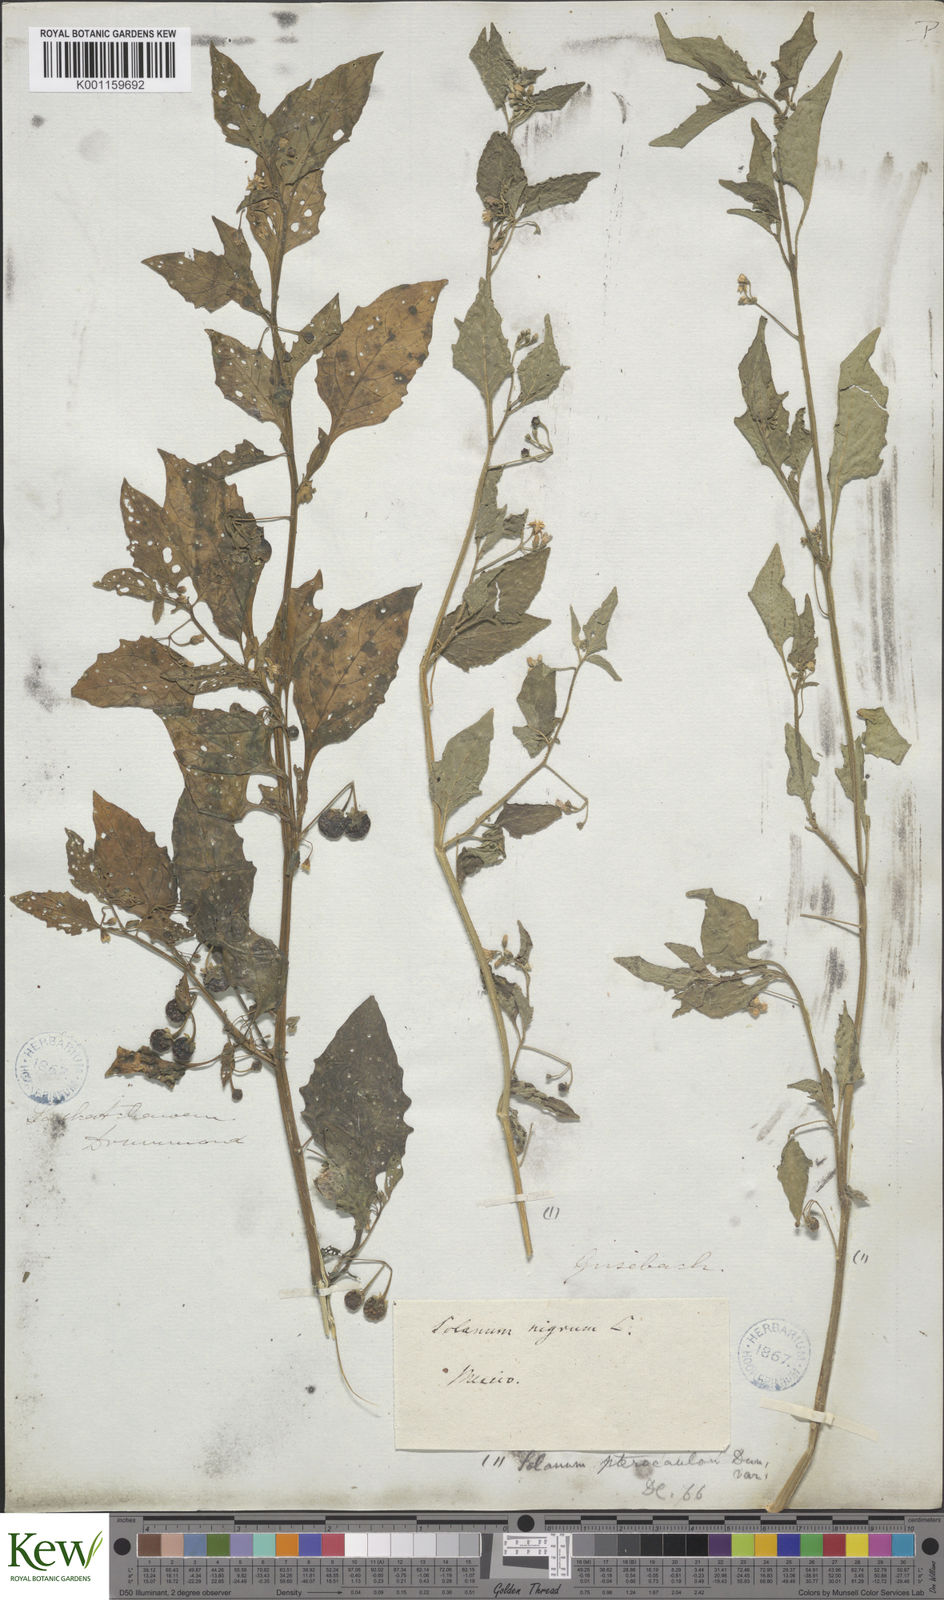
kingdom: Plantae
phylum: Tracheophyta
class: Magnoliopsida
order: Solanales
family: Solanaceae
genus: Solanum
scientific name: Solanum nigrum
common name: Black nightshade
